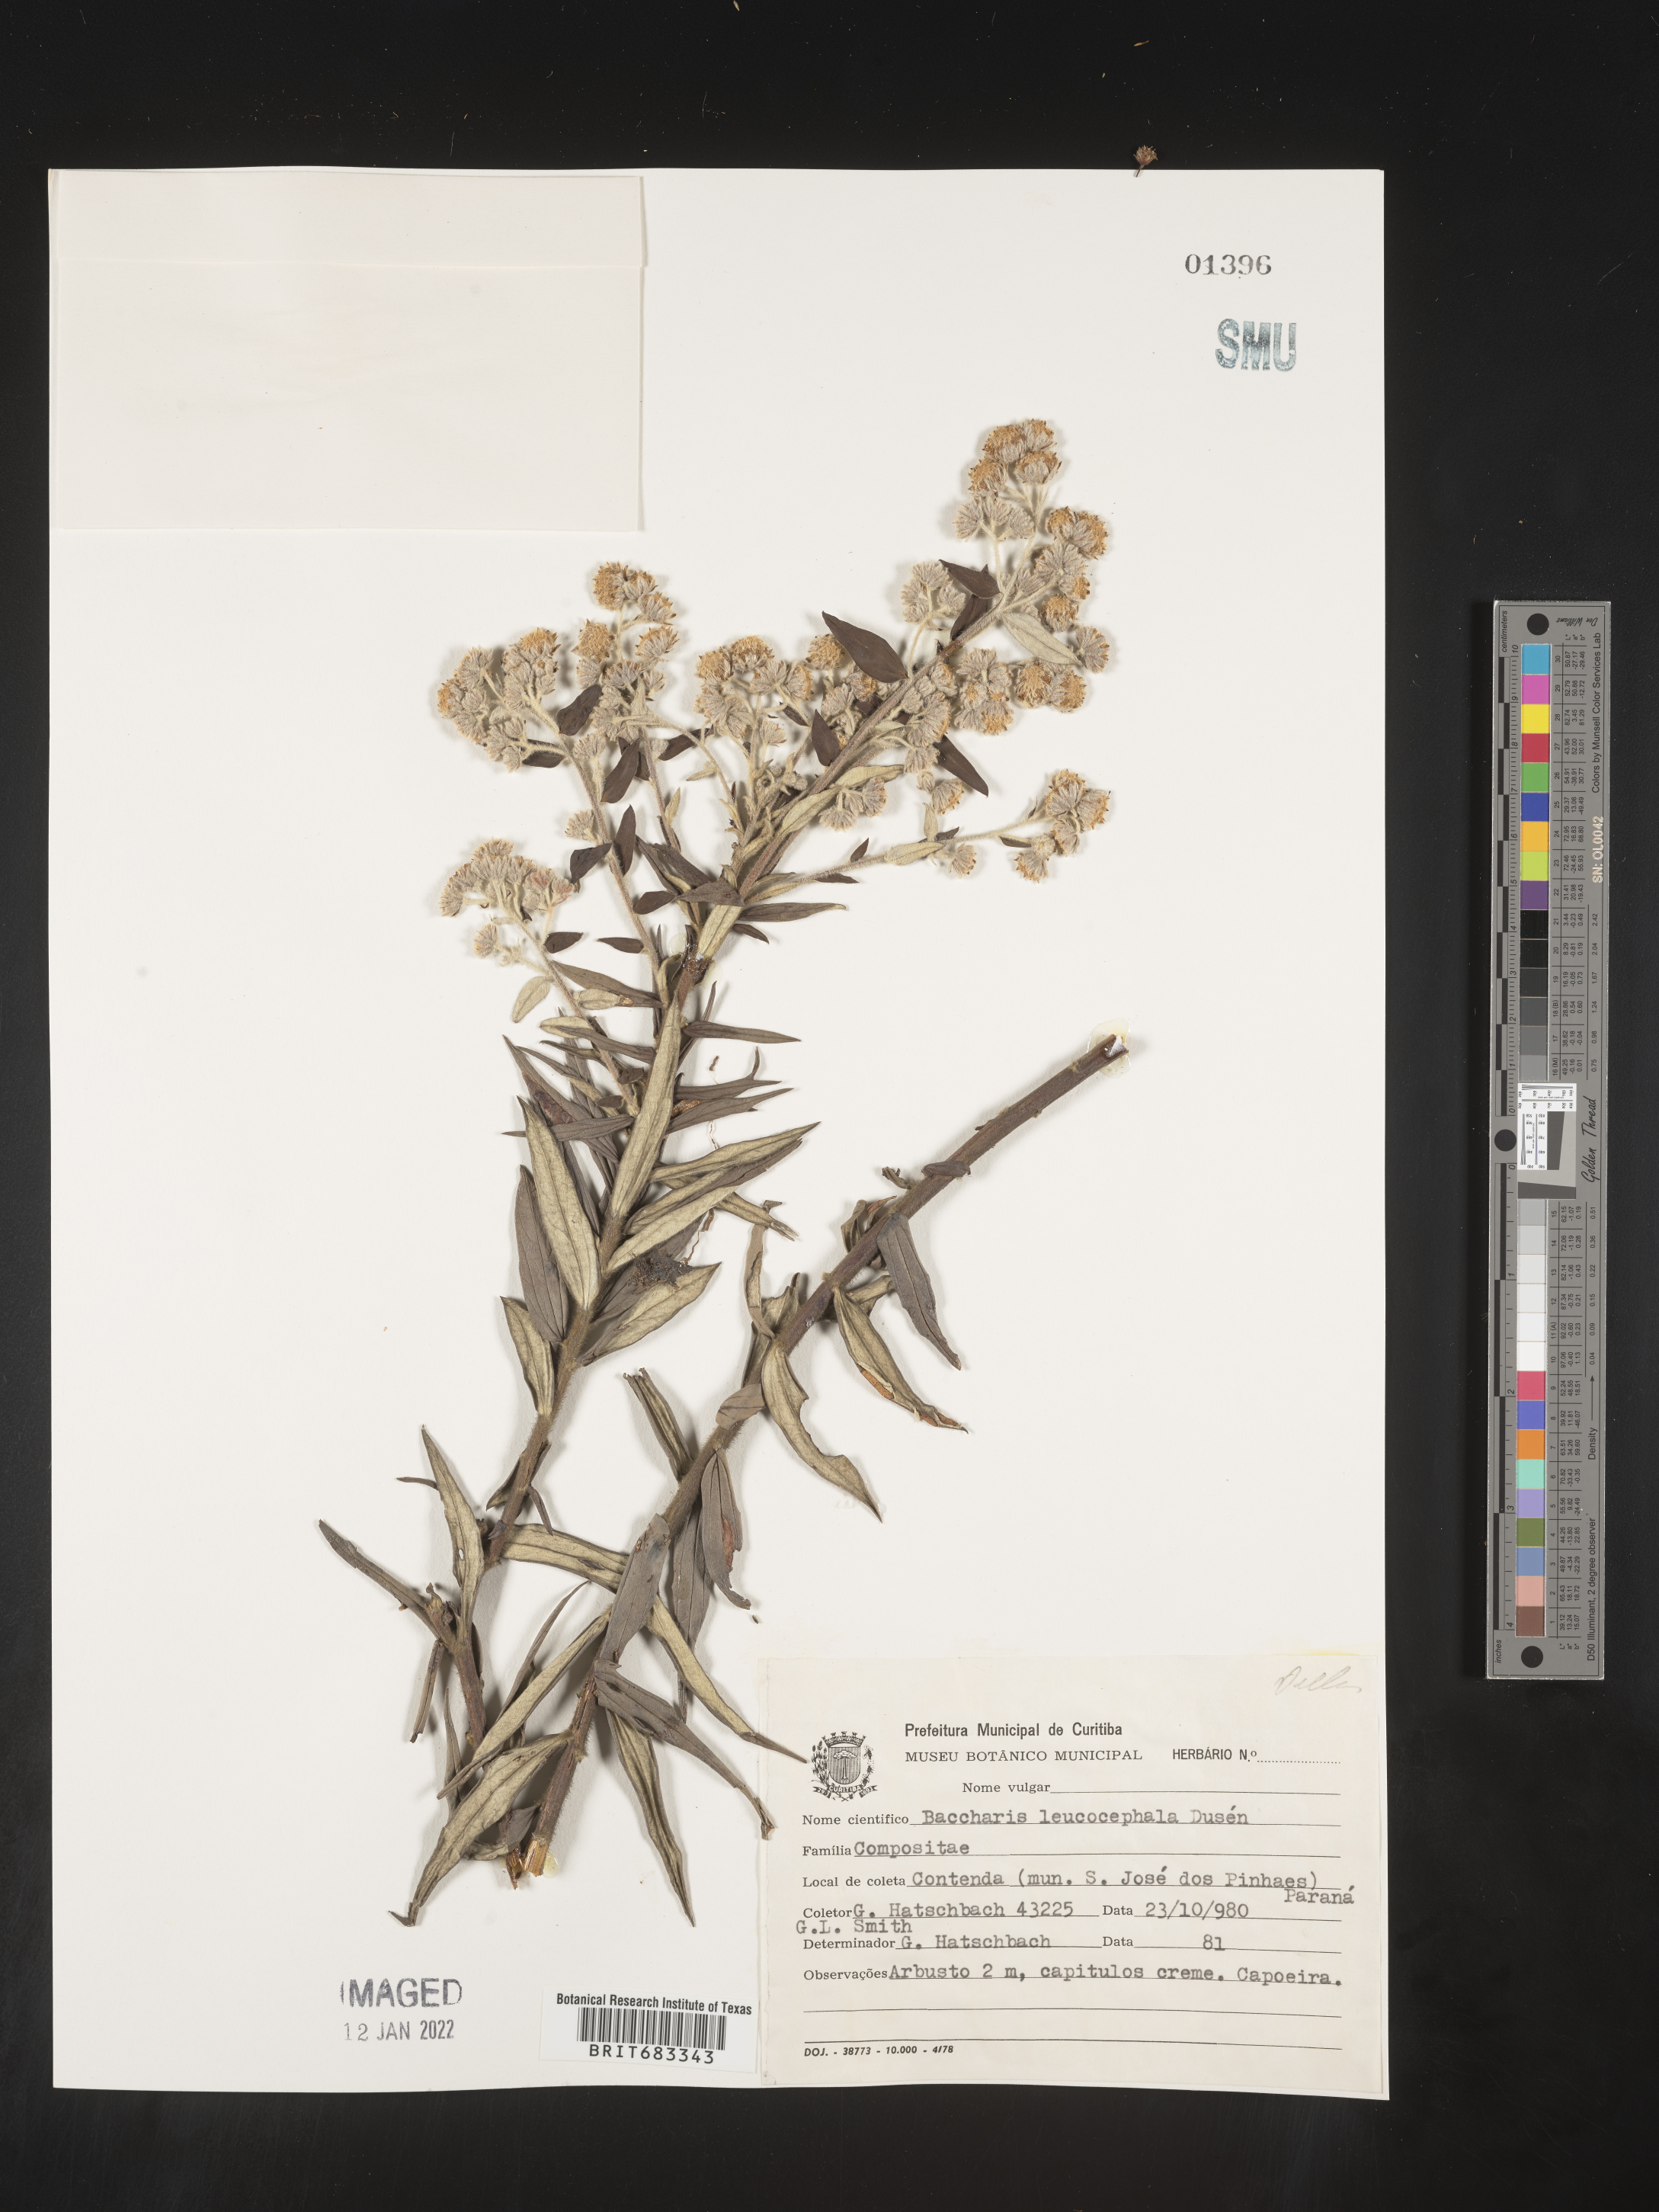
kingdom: Plantae
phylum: Tracheophyta
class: Magnoliopsida
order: Asterales
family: Asteraceae
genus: Baccharis
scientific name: Baccharis
